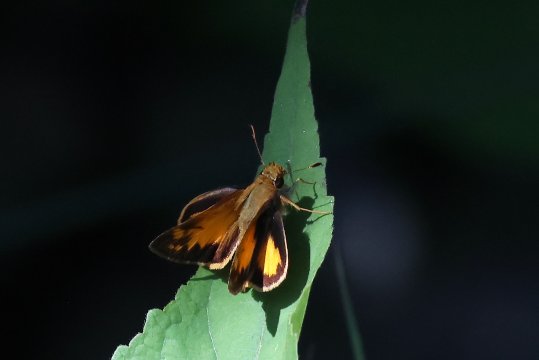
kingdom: Animalia
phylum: Arthropoda
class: Insecta
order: Lepidoptera
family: Hesperiidae
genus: Lon
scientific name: Lon zabulon
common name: Zabulon Skipper
